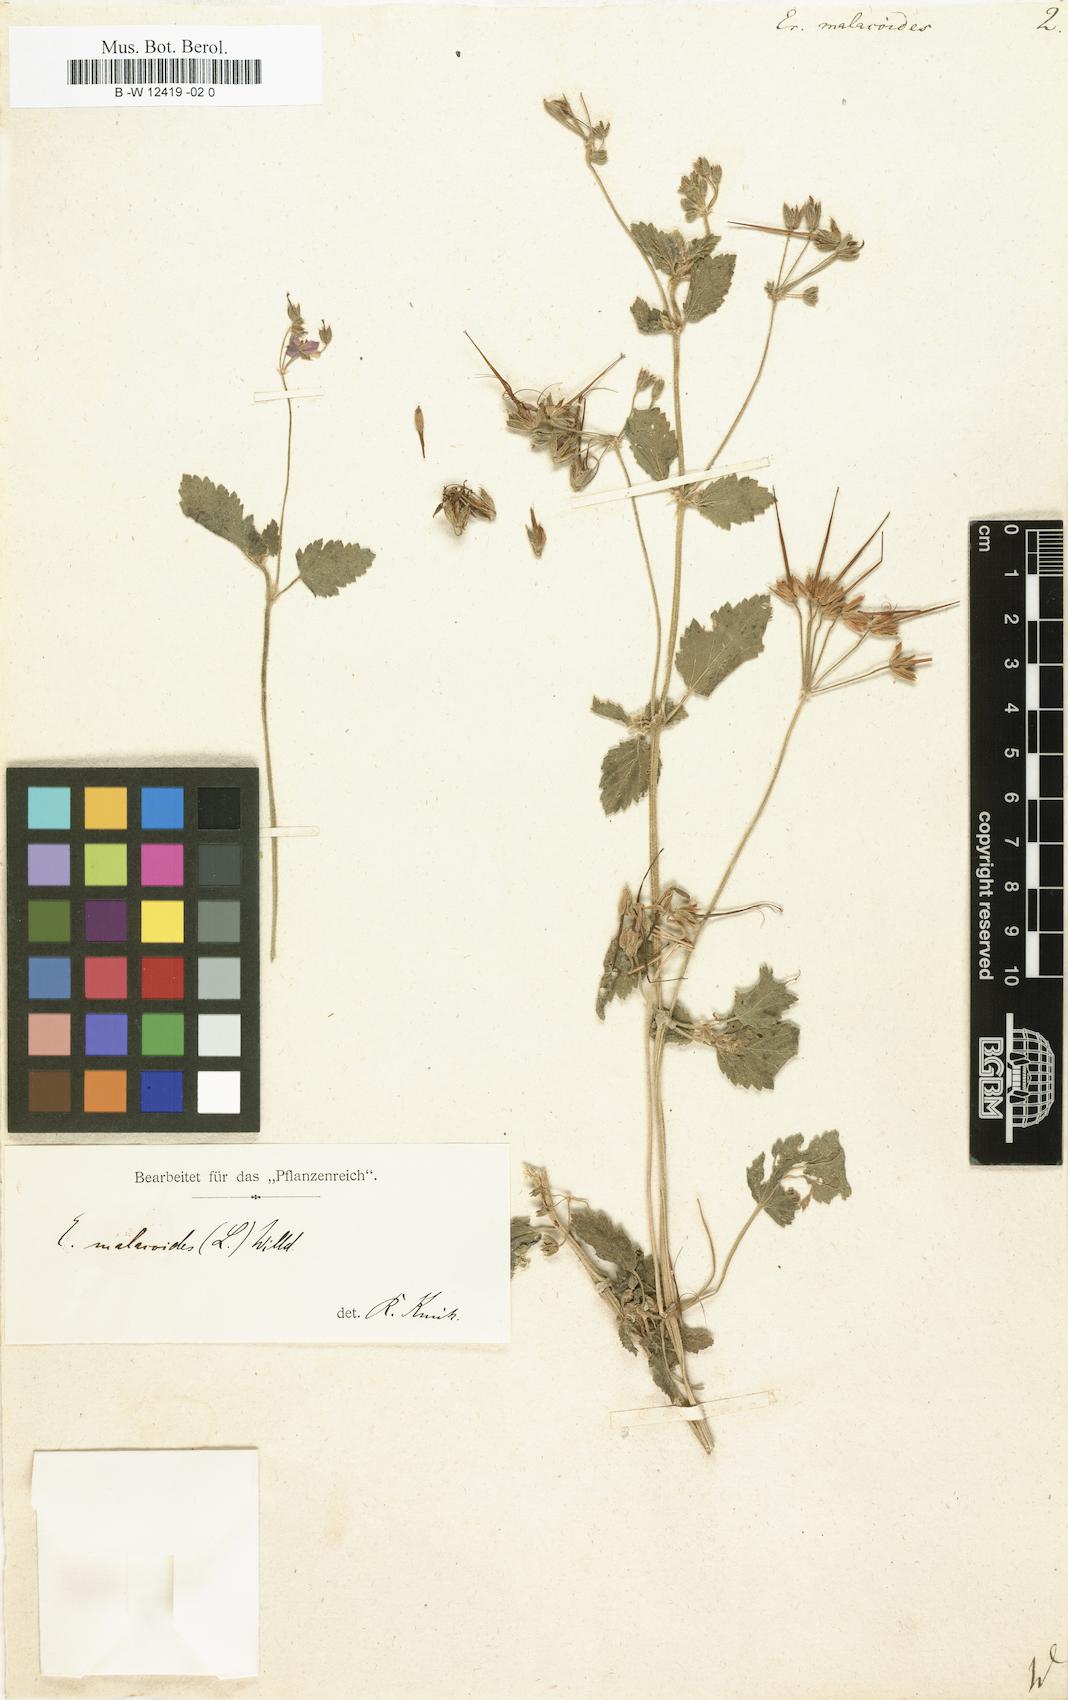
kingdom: Plantae
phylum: Tracheophyta
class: Magnoliopsida
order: Geraniales
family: Geraniaceae
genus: Erodium
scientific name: Erodium malacoides
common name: Soft stork's-bill
